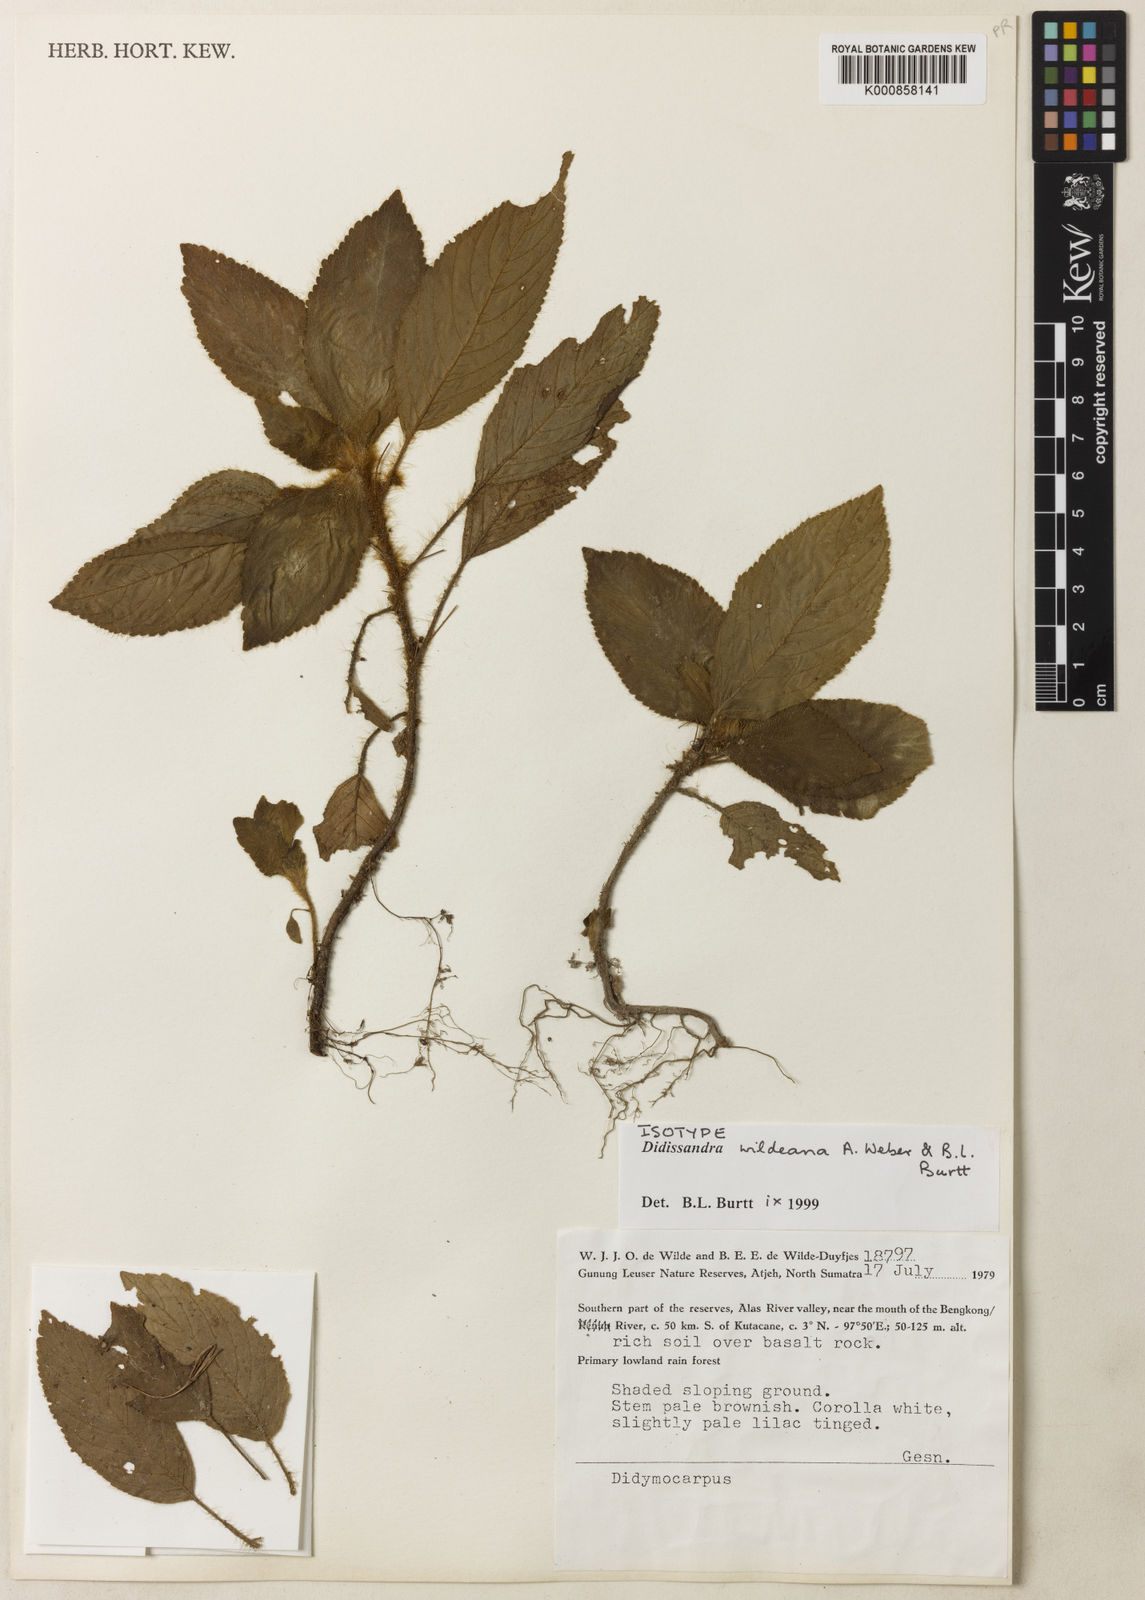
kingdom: Plantae
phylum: Tracheophyta
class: Magnoliopsida
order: Lamiales
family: Gesneriaceae
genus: Didissandra
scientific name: Didissandra wildeana
